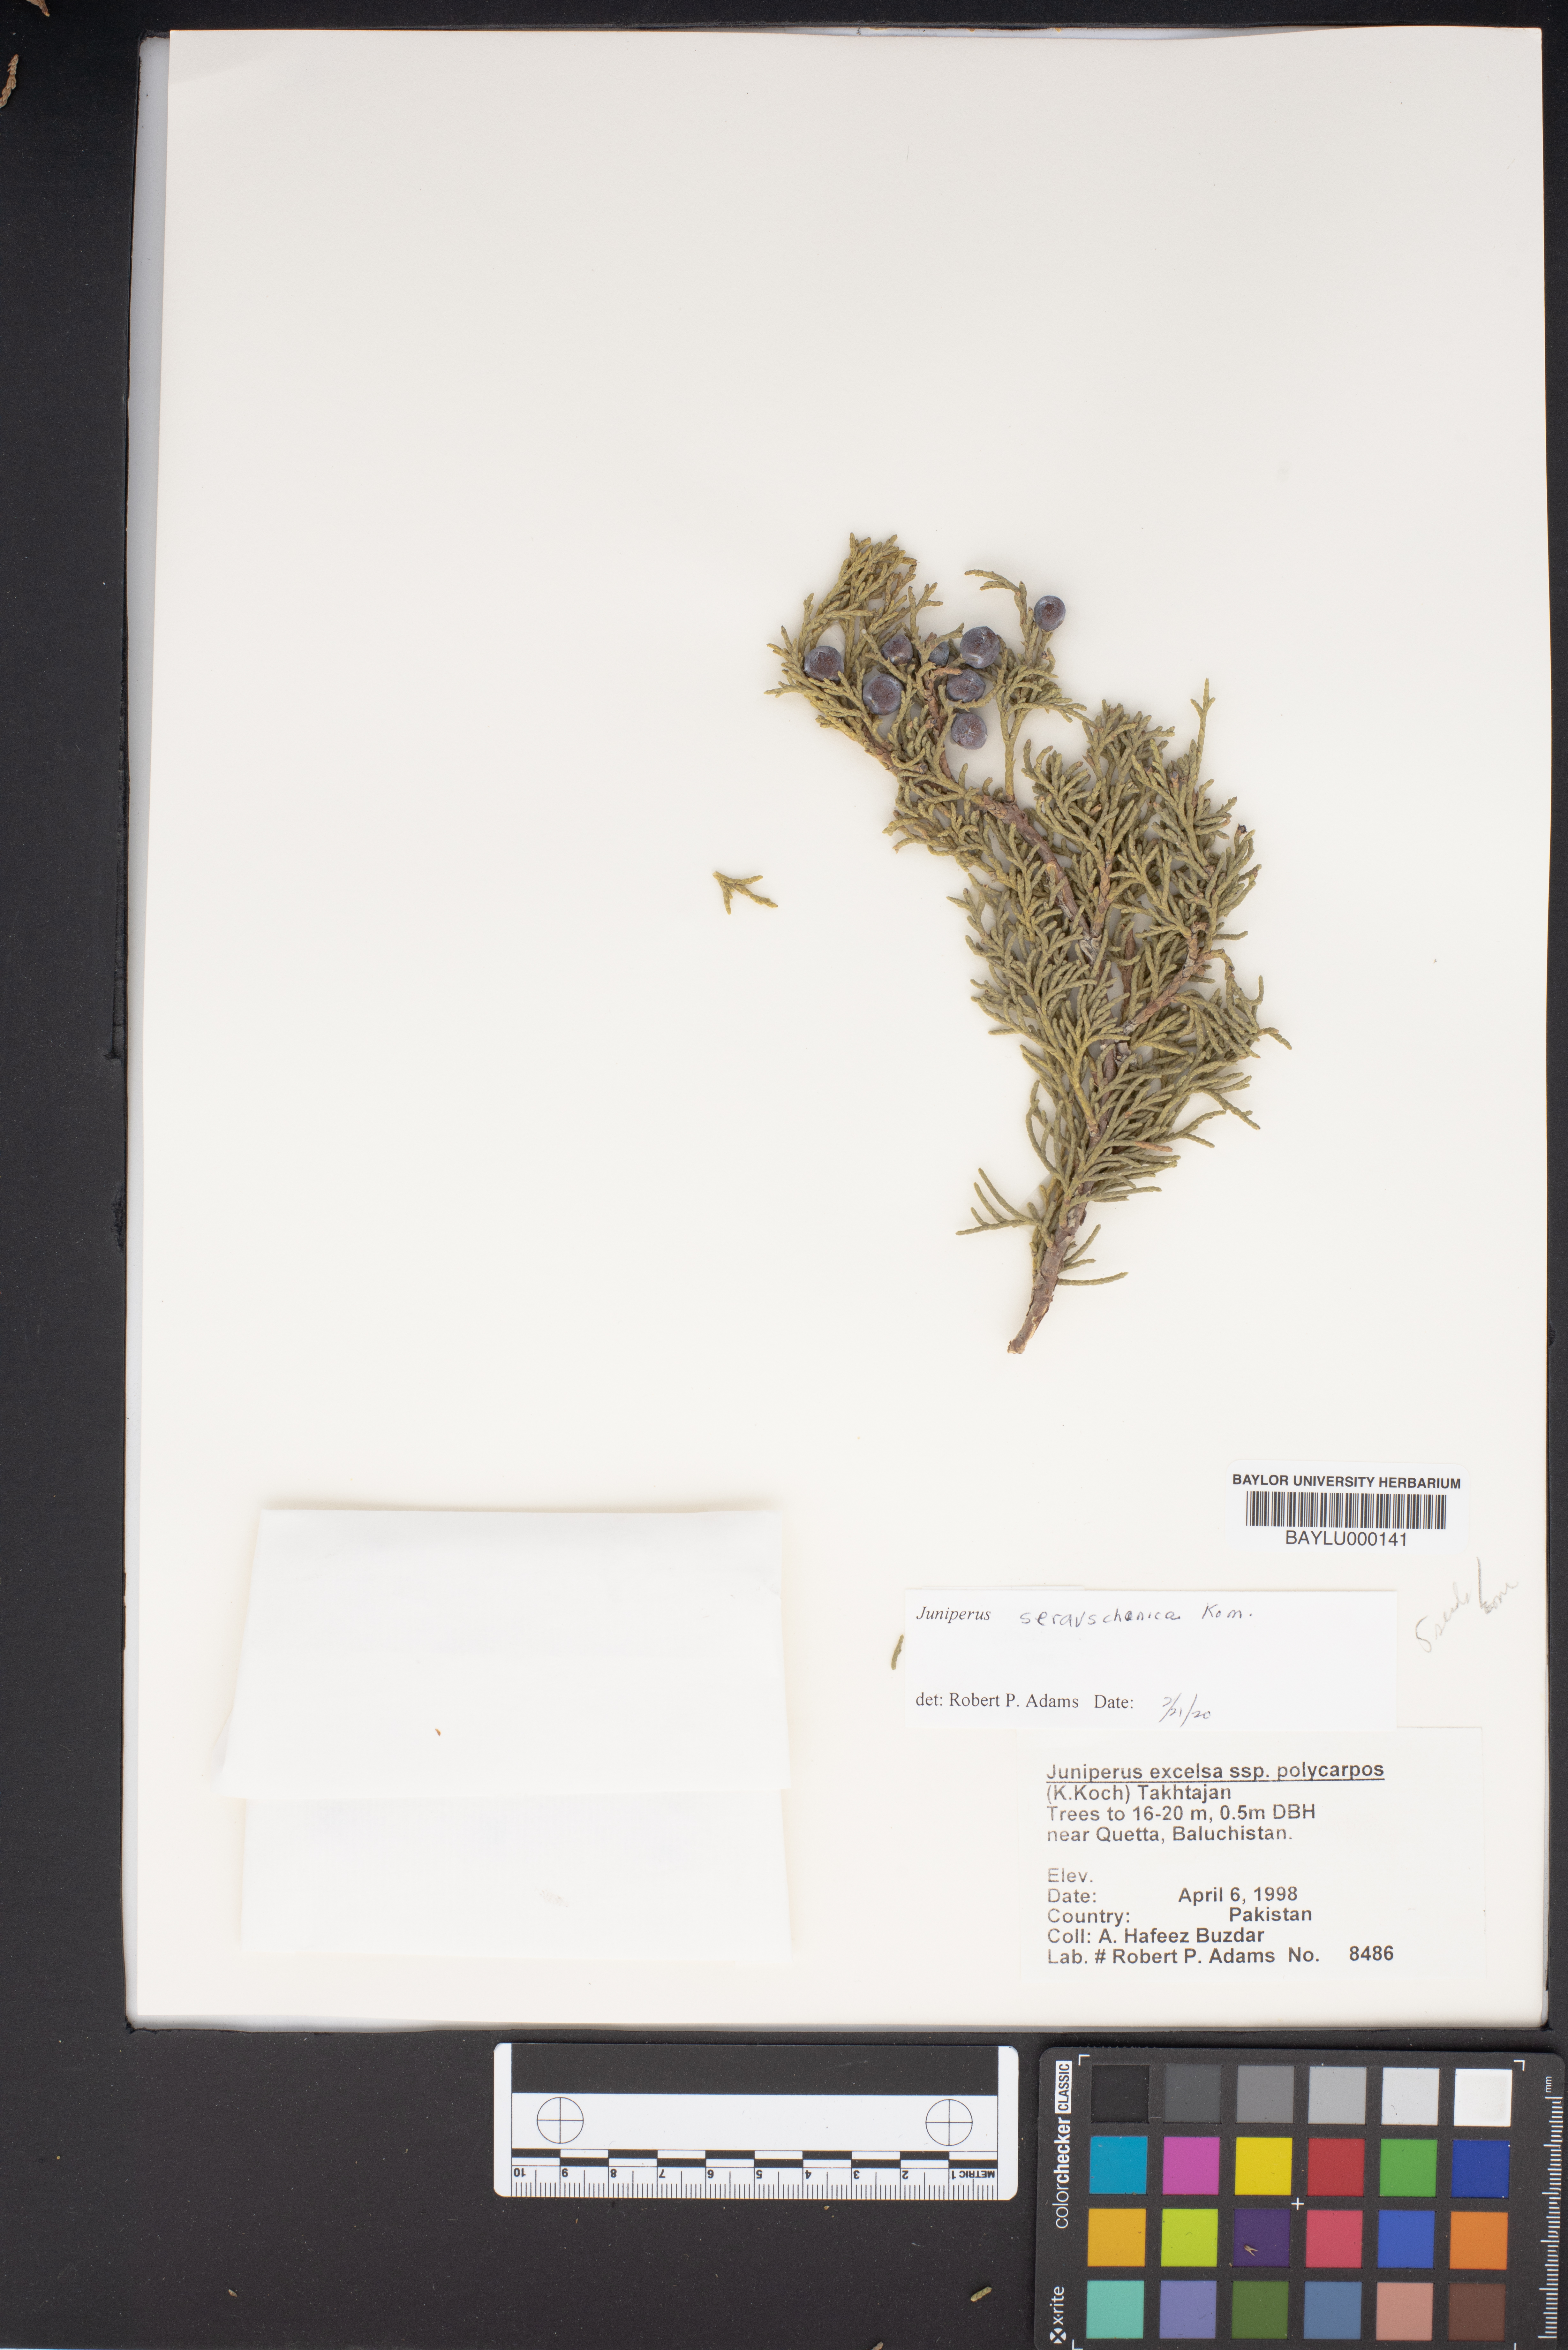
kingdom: Plantae
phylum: Tracheophyta
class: Pinopsida
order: Pinales
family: Cupressaceae
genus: Juniperus
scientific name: Juniperus excelsa
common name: Crimean juniper
